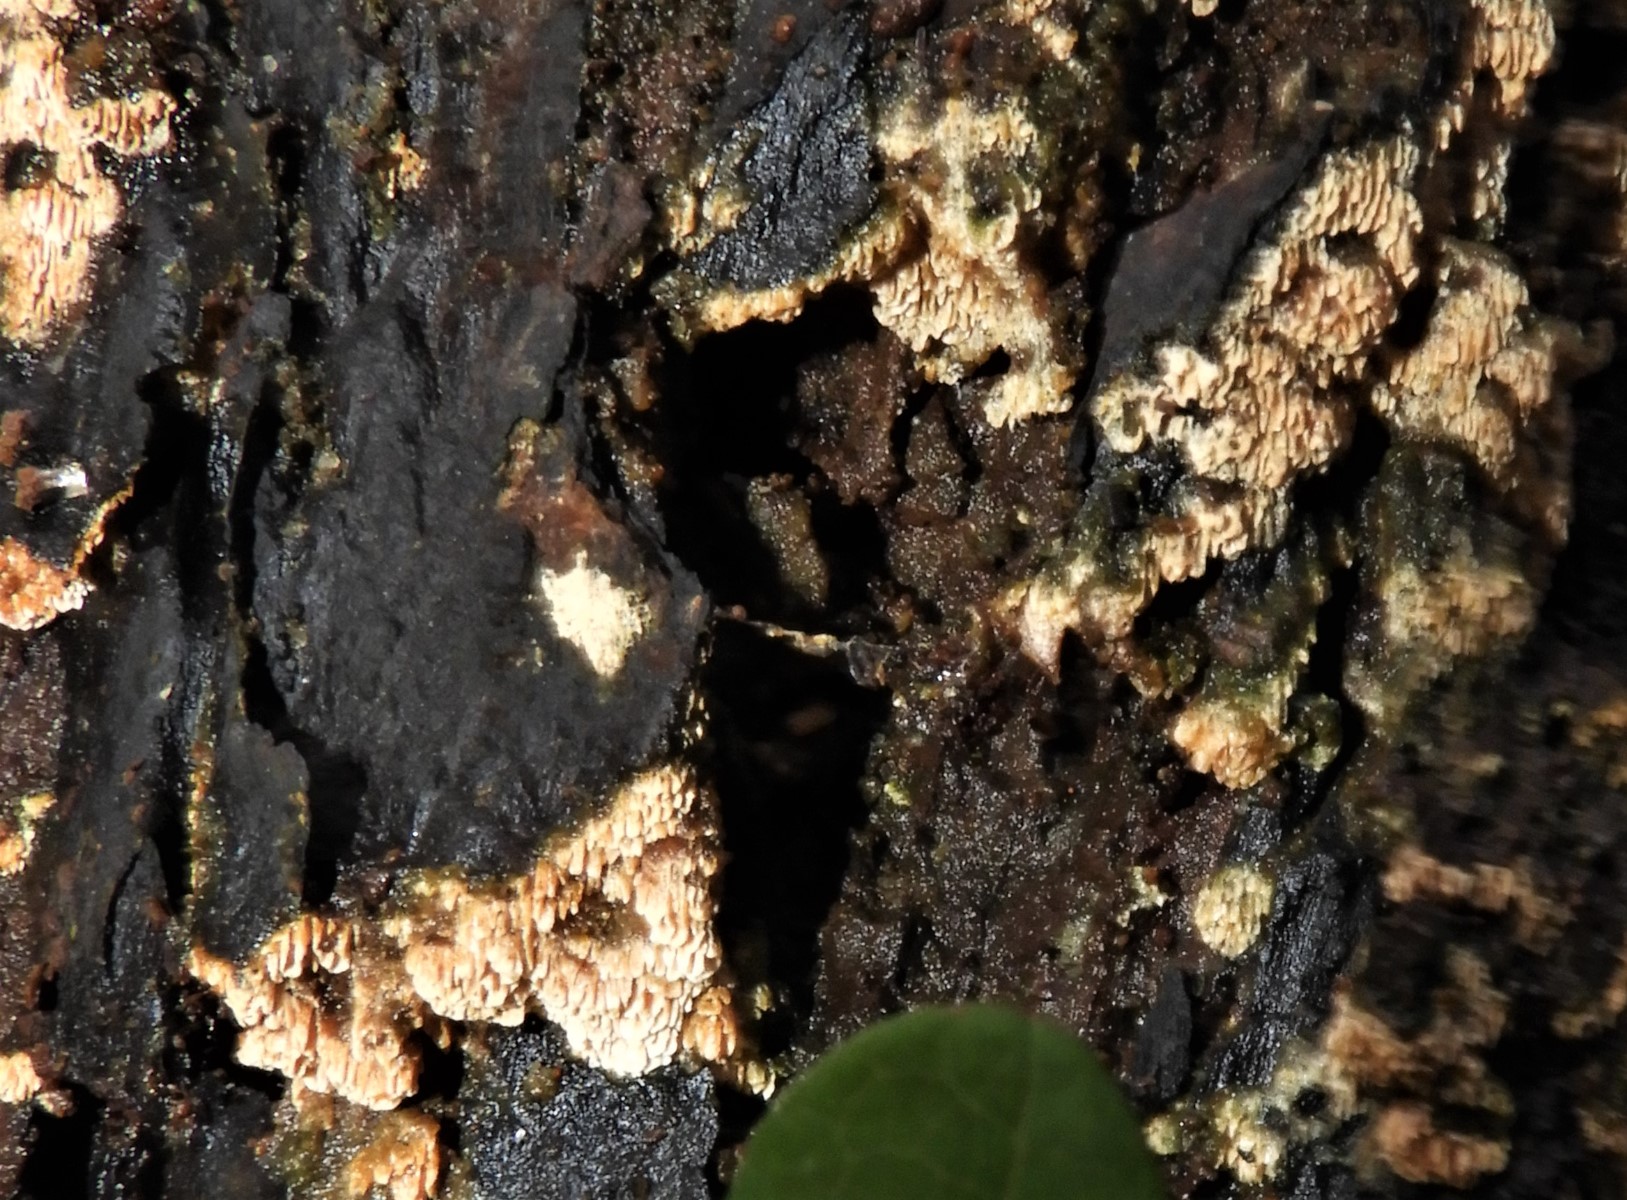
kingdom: Fungi
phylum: Basidiomycota
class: Agaricomycetes
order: Hymenochaetales
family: Schizoporaceae
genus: Xylodon
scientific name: Xylodon
